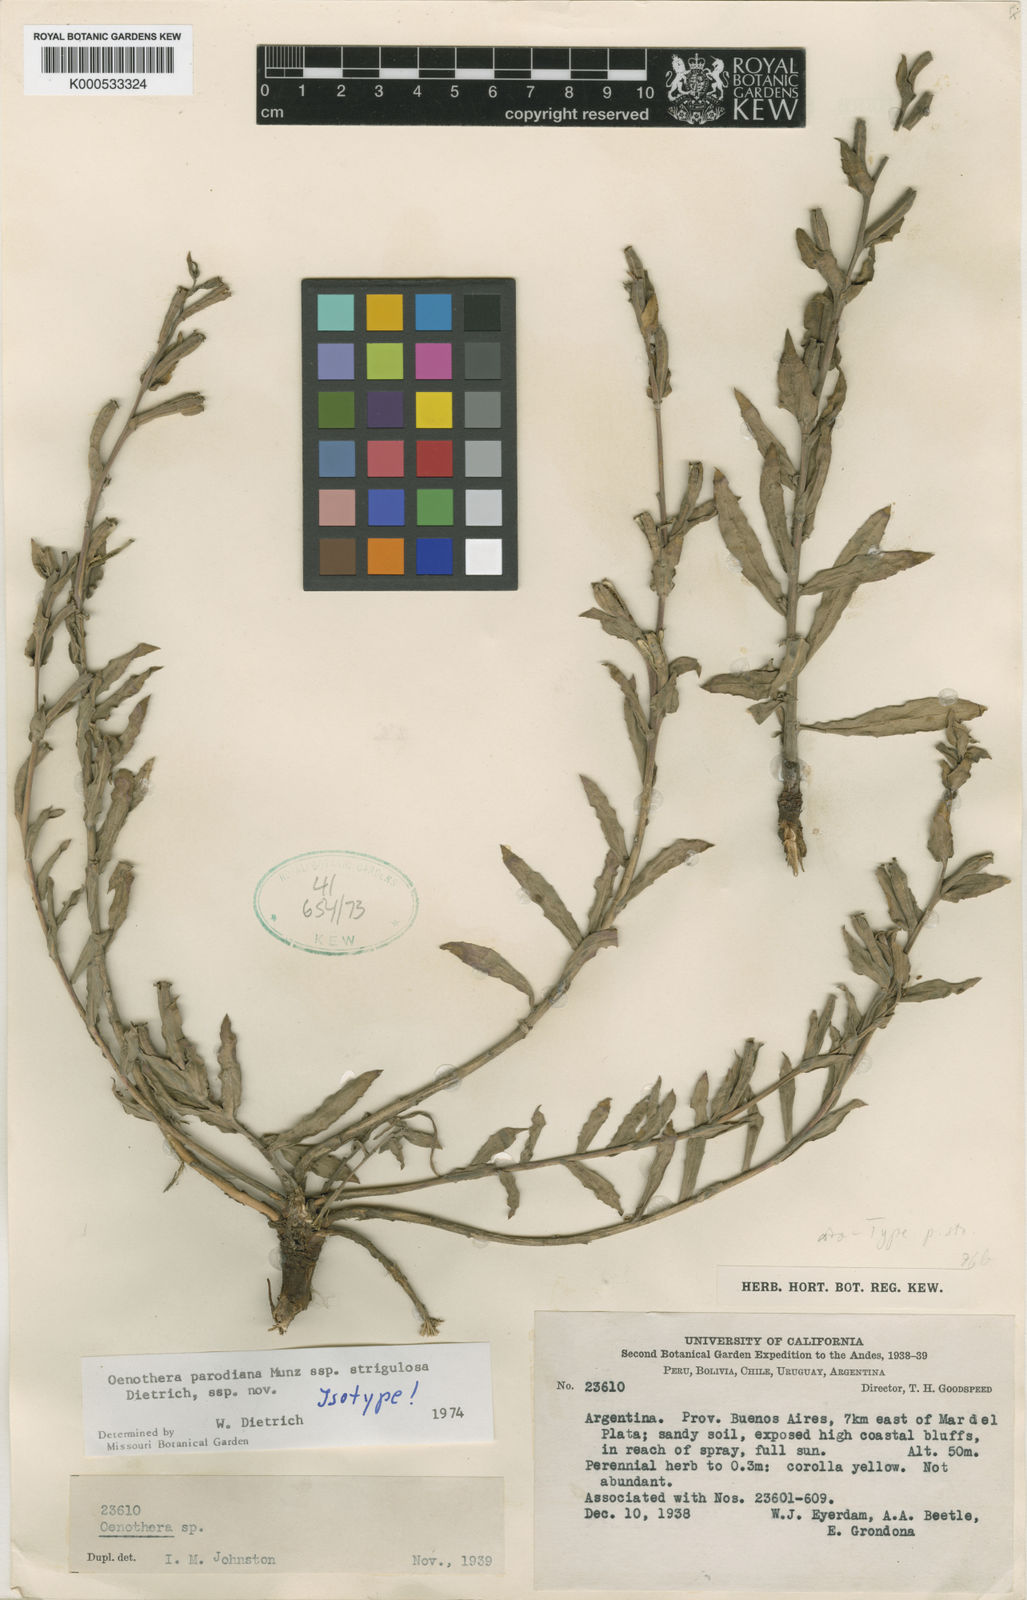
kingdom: Plantae
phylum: Tracheophyta
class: Magnoliopsida
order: Myrtales
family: Onagraceae
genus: Oenothera
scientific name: Oenothera parodiana
